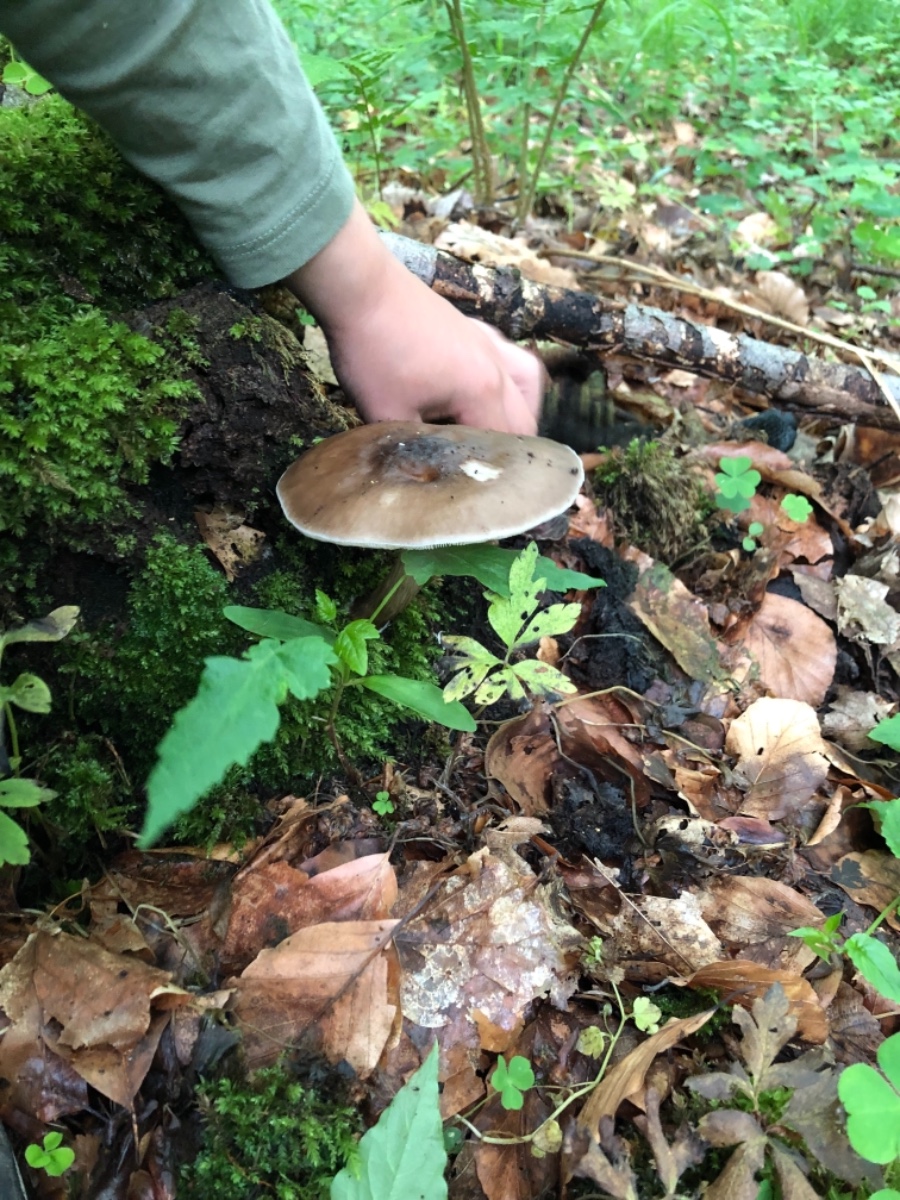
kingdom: Fungi
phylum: Basidiomycota
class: Agaricomycetes
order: Agaricales
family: Pluteaceae
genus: Pluteus
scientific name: Pluteus cervinus
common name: sodfarvet skærmhat
